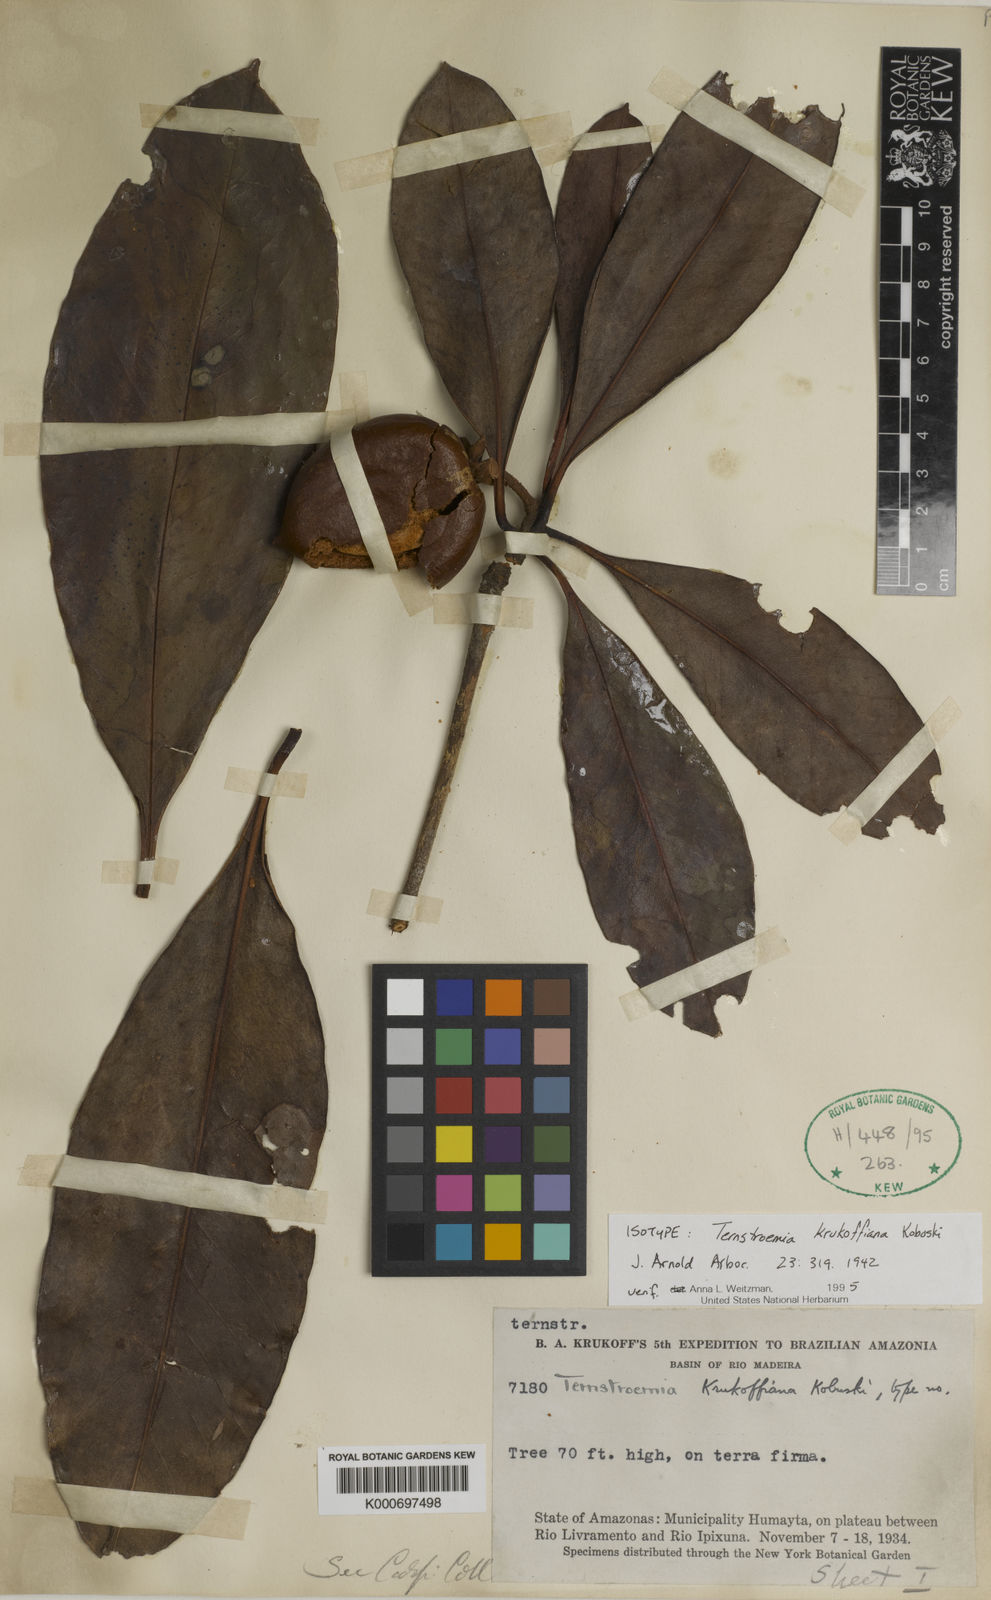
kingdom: Plantae
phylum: Tracheophyta
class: Magnoliopsida
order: Ericales
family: Pentaphylacaceae
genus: Ternstroemia
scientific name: Ternstroemia krukoffiana
